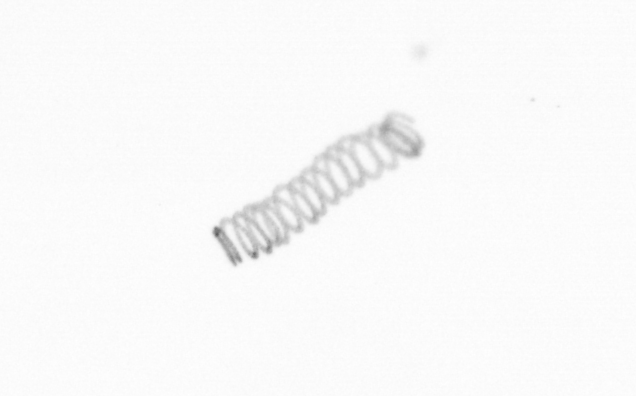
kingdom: Chromista
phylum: Ochrophyta
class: Bacillariophyceae
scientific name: Bacillariophyceae
